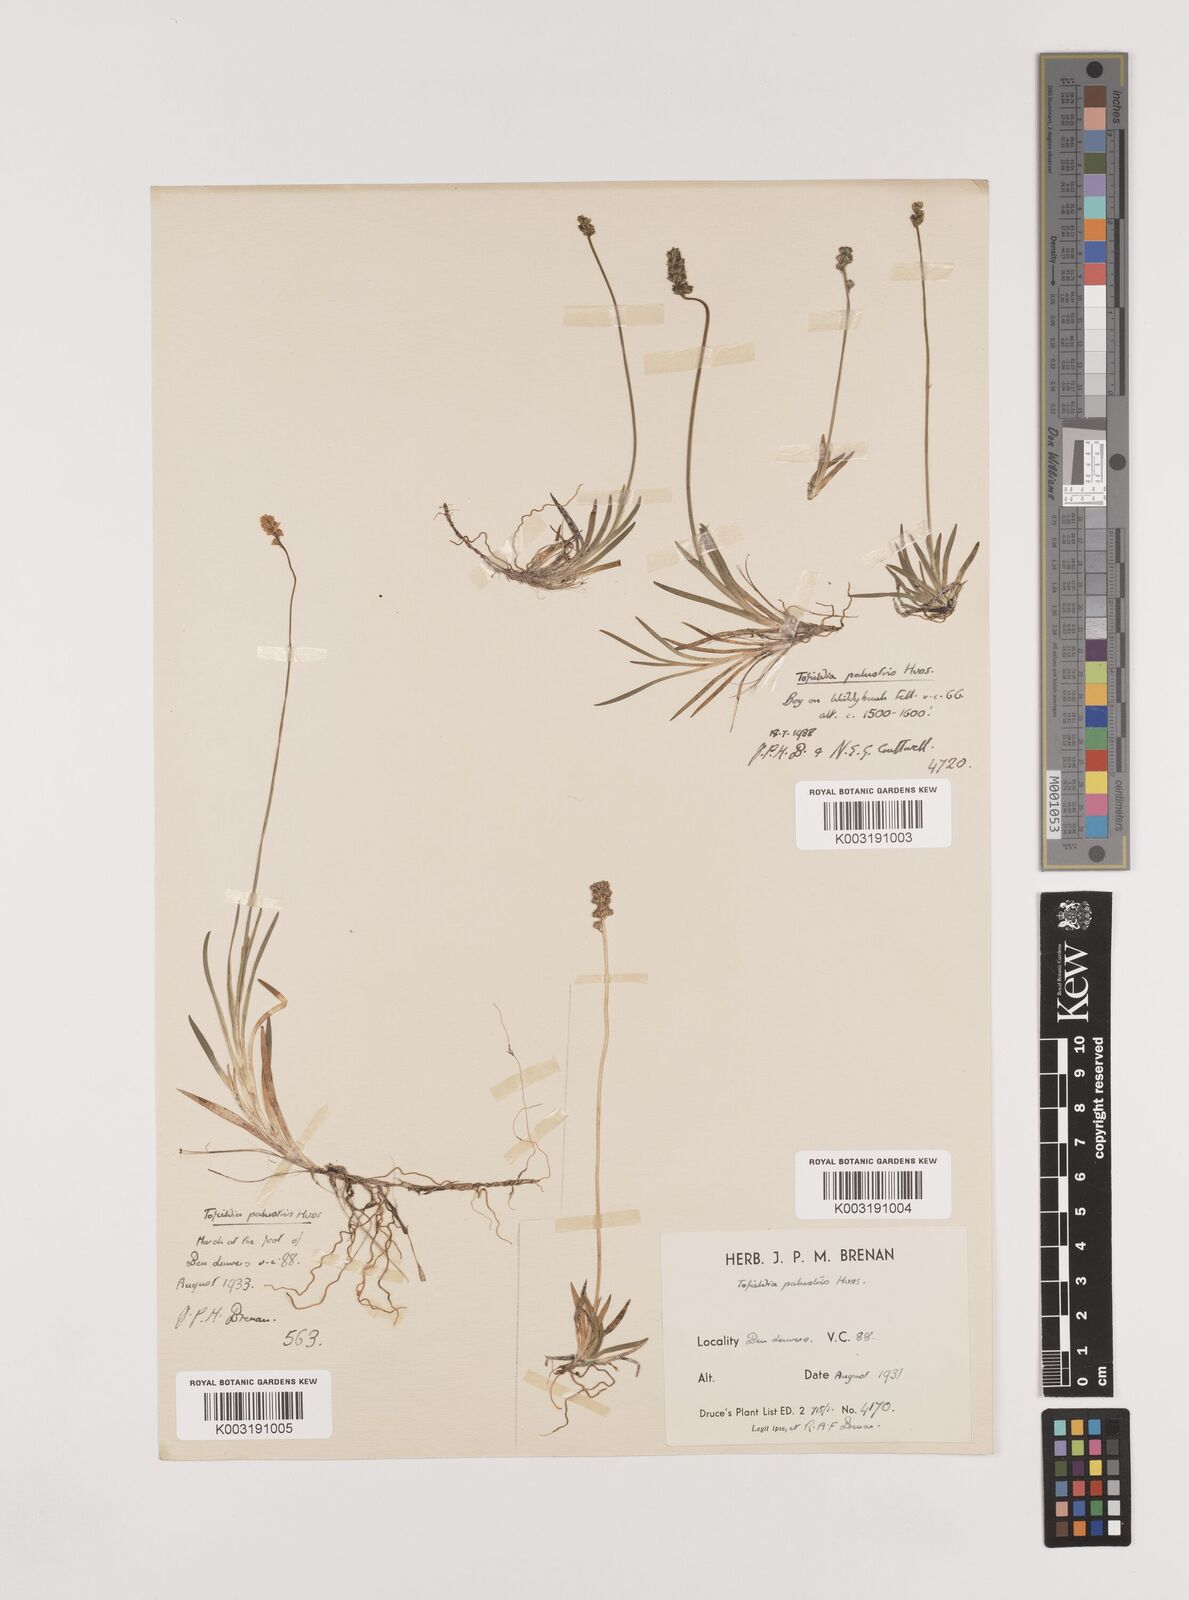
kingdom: Plantae
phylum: Tracheophyta
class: Liliopsida
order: Alismatales
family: Tofieldiaceae
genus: Tofieldia
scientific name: Tofieldia pusilla
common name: Scottish false asphodel
